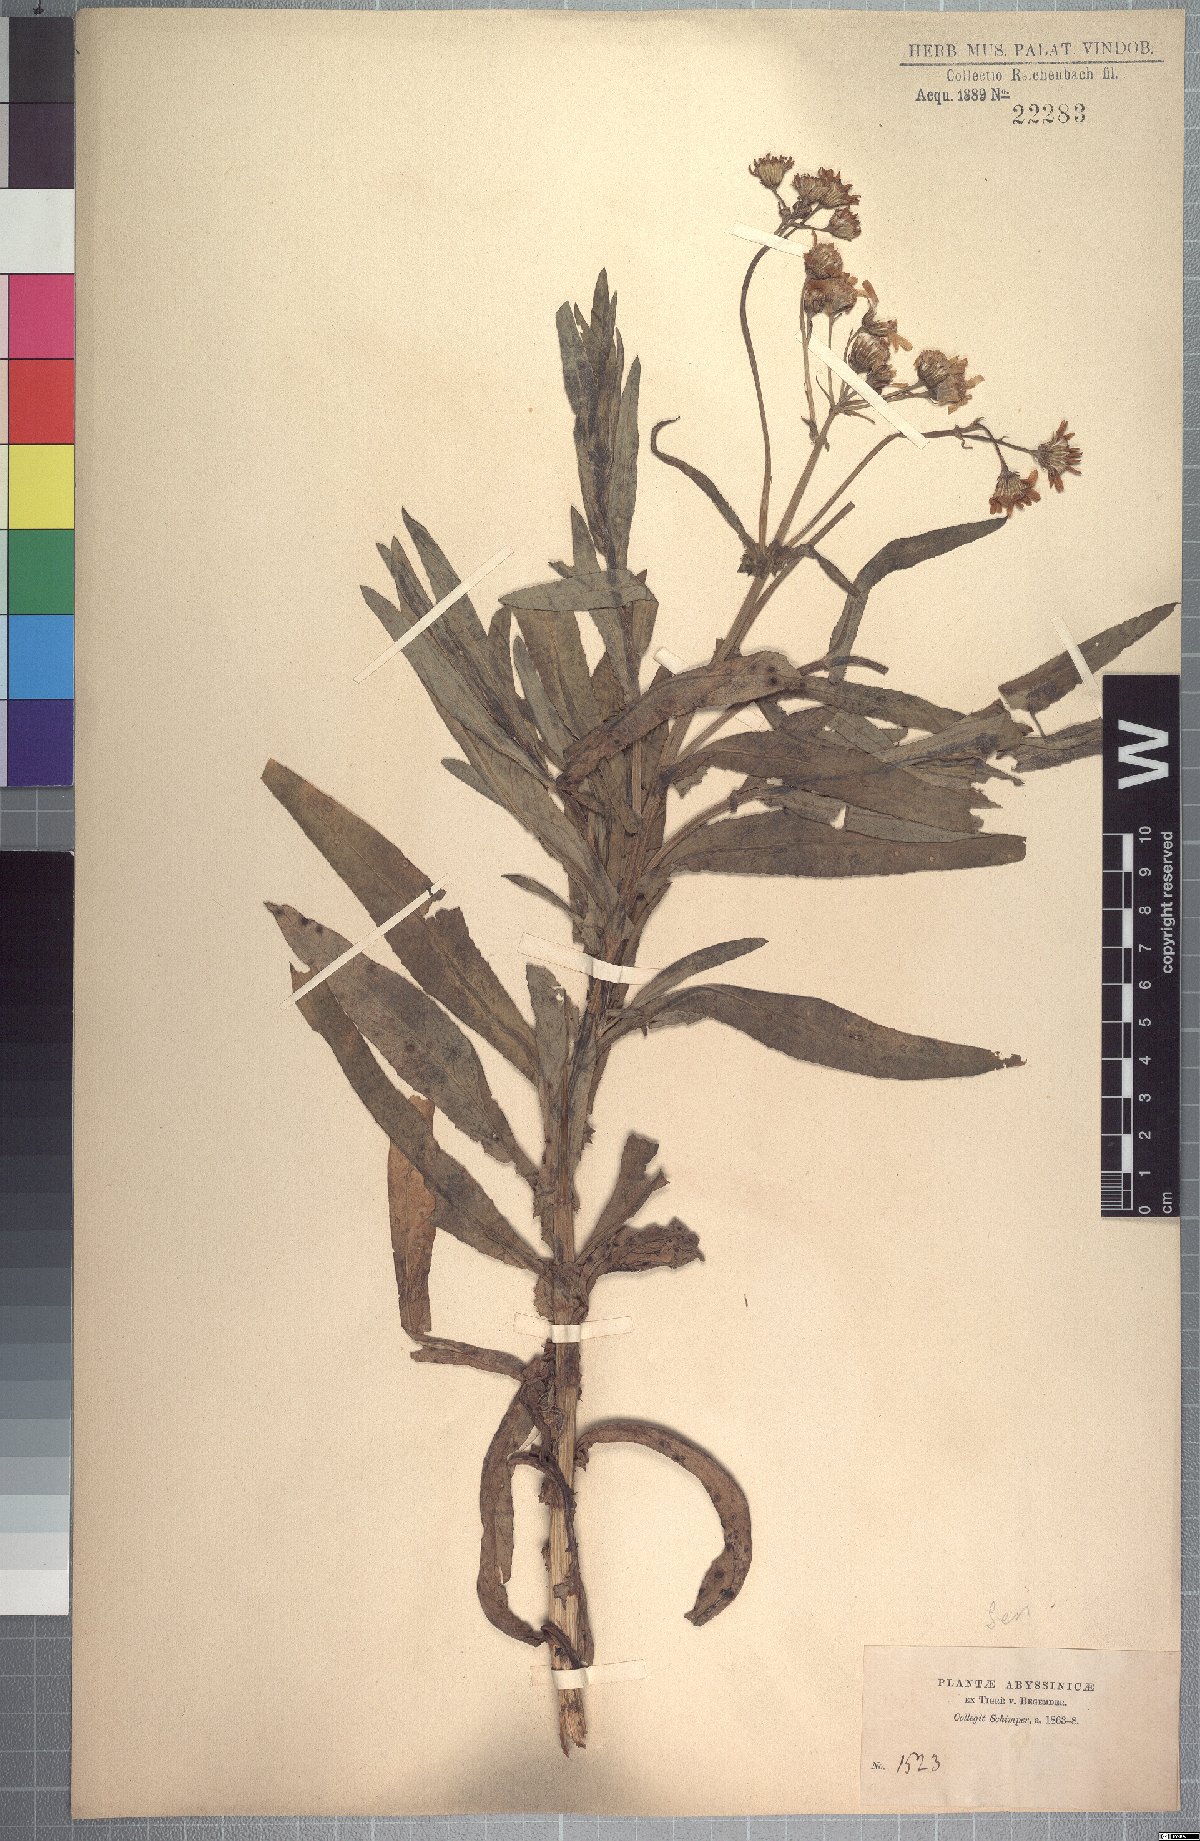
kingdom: Plantae
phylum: Tracheophyta
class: Magnoliopsida
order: Asterales
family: Asteraceae
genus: Senecio
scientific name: Senecio steudelii
